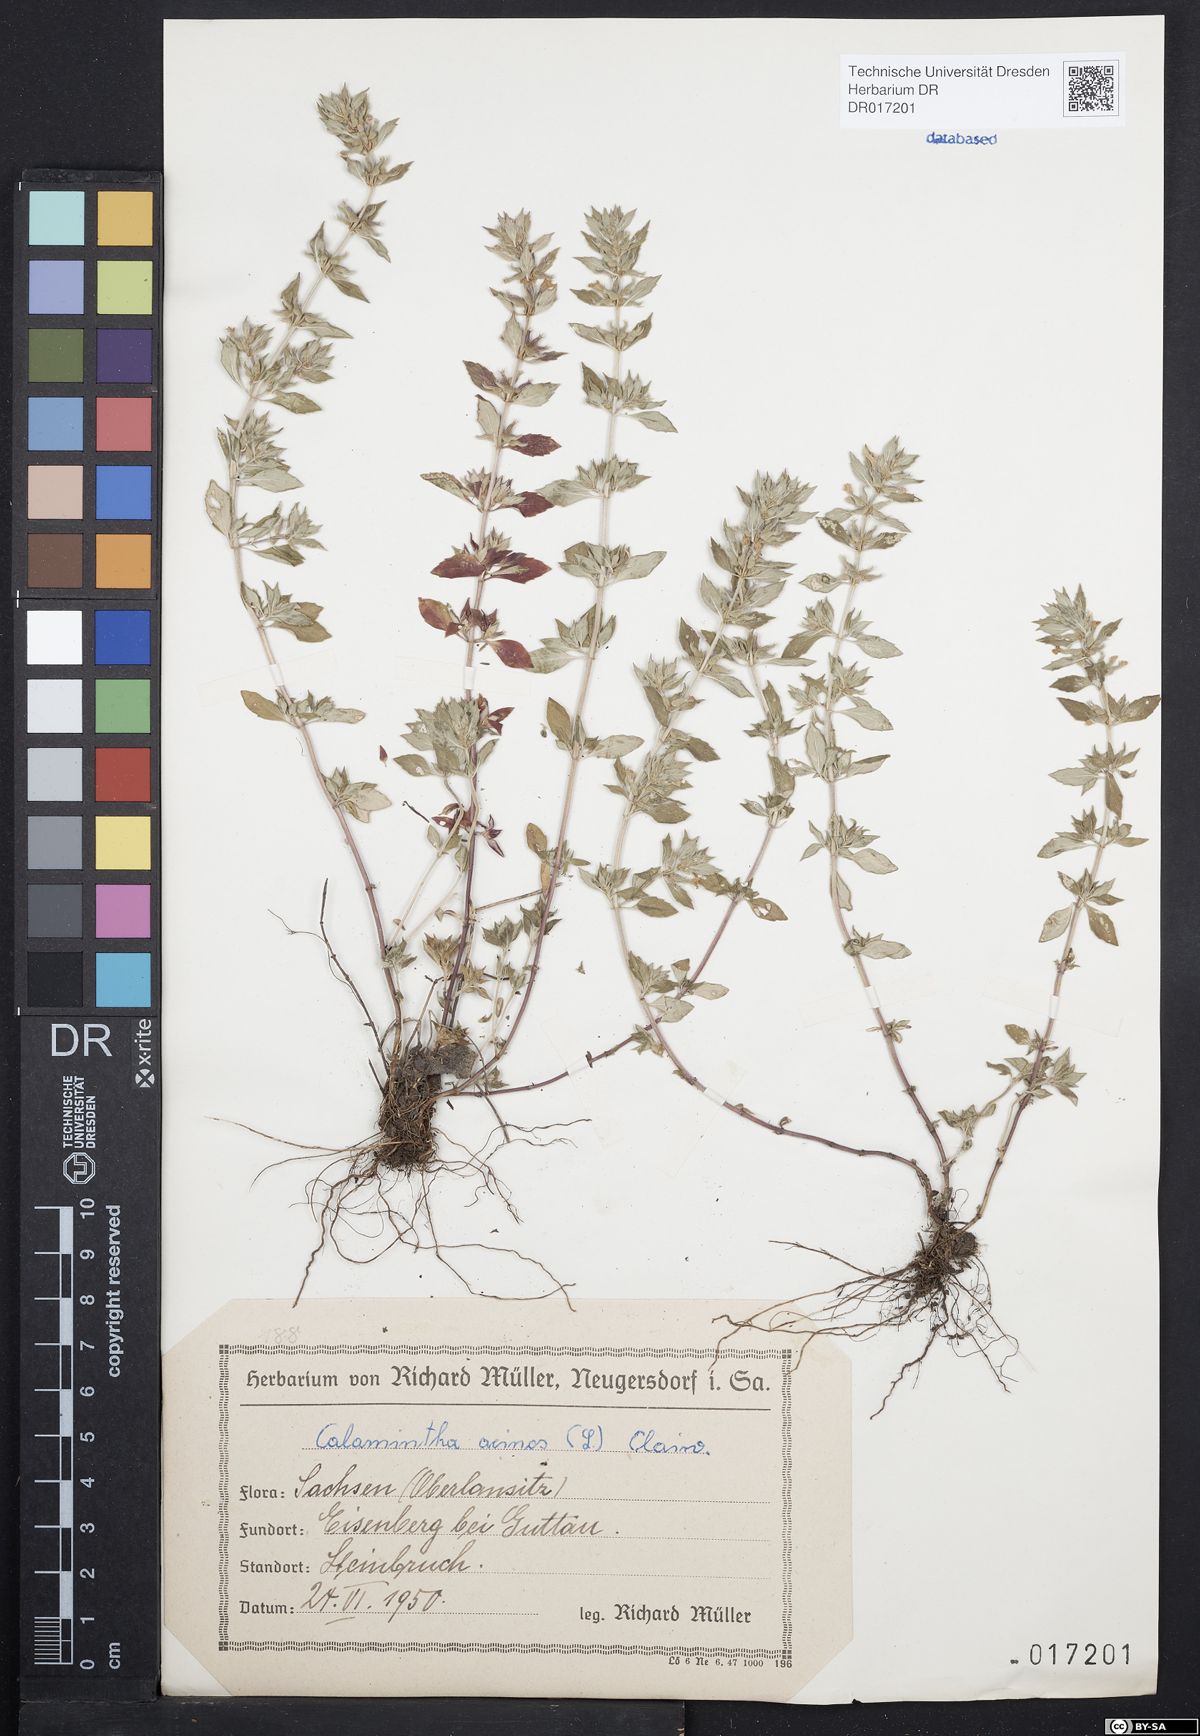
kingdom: Plantae
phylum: Tracheophyta
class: Magnoliopsida
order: Lamiales
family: Lamiaceae
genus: Clinopodium
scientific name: Clinopodium acinos
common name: Basil thyme
